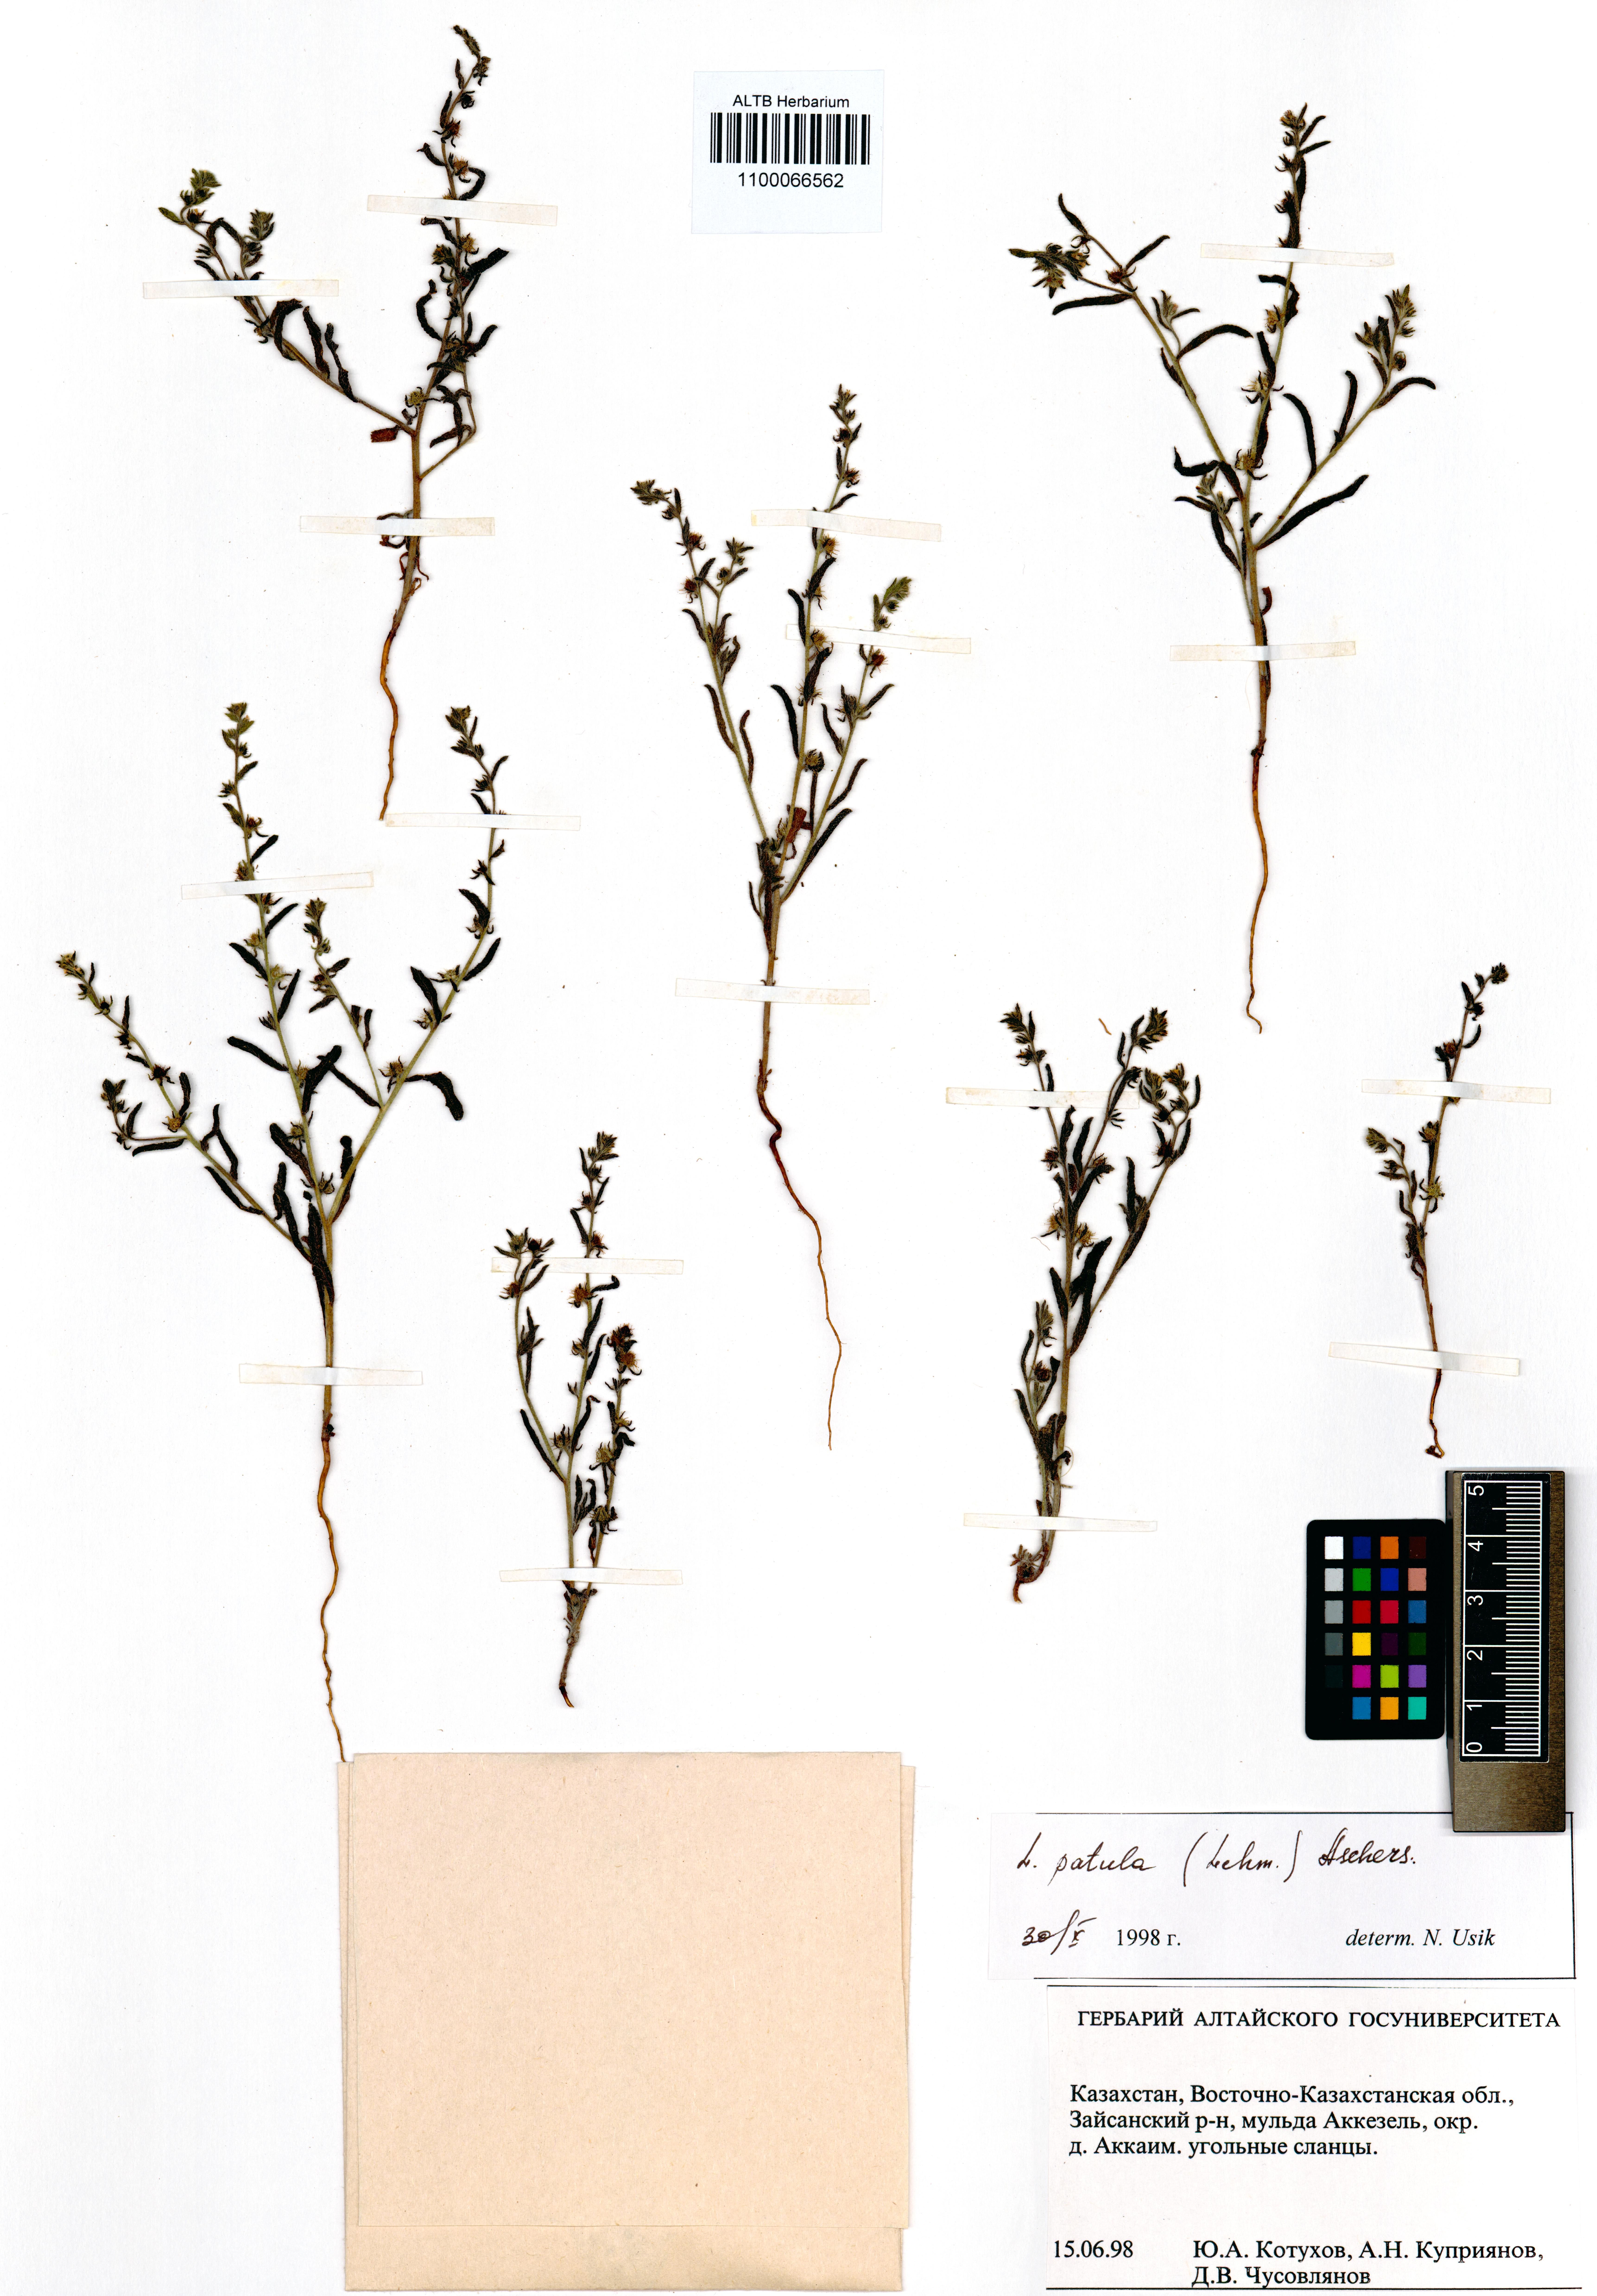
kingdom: Plantae
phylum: Tracheophyta
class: Magnoliopsida
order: Boraginales
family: Boraginaceae
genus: Lappula
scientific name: Lappula patula
